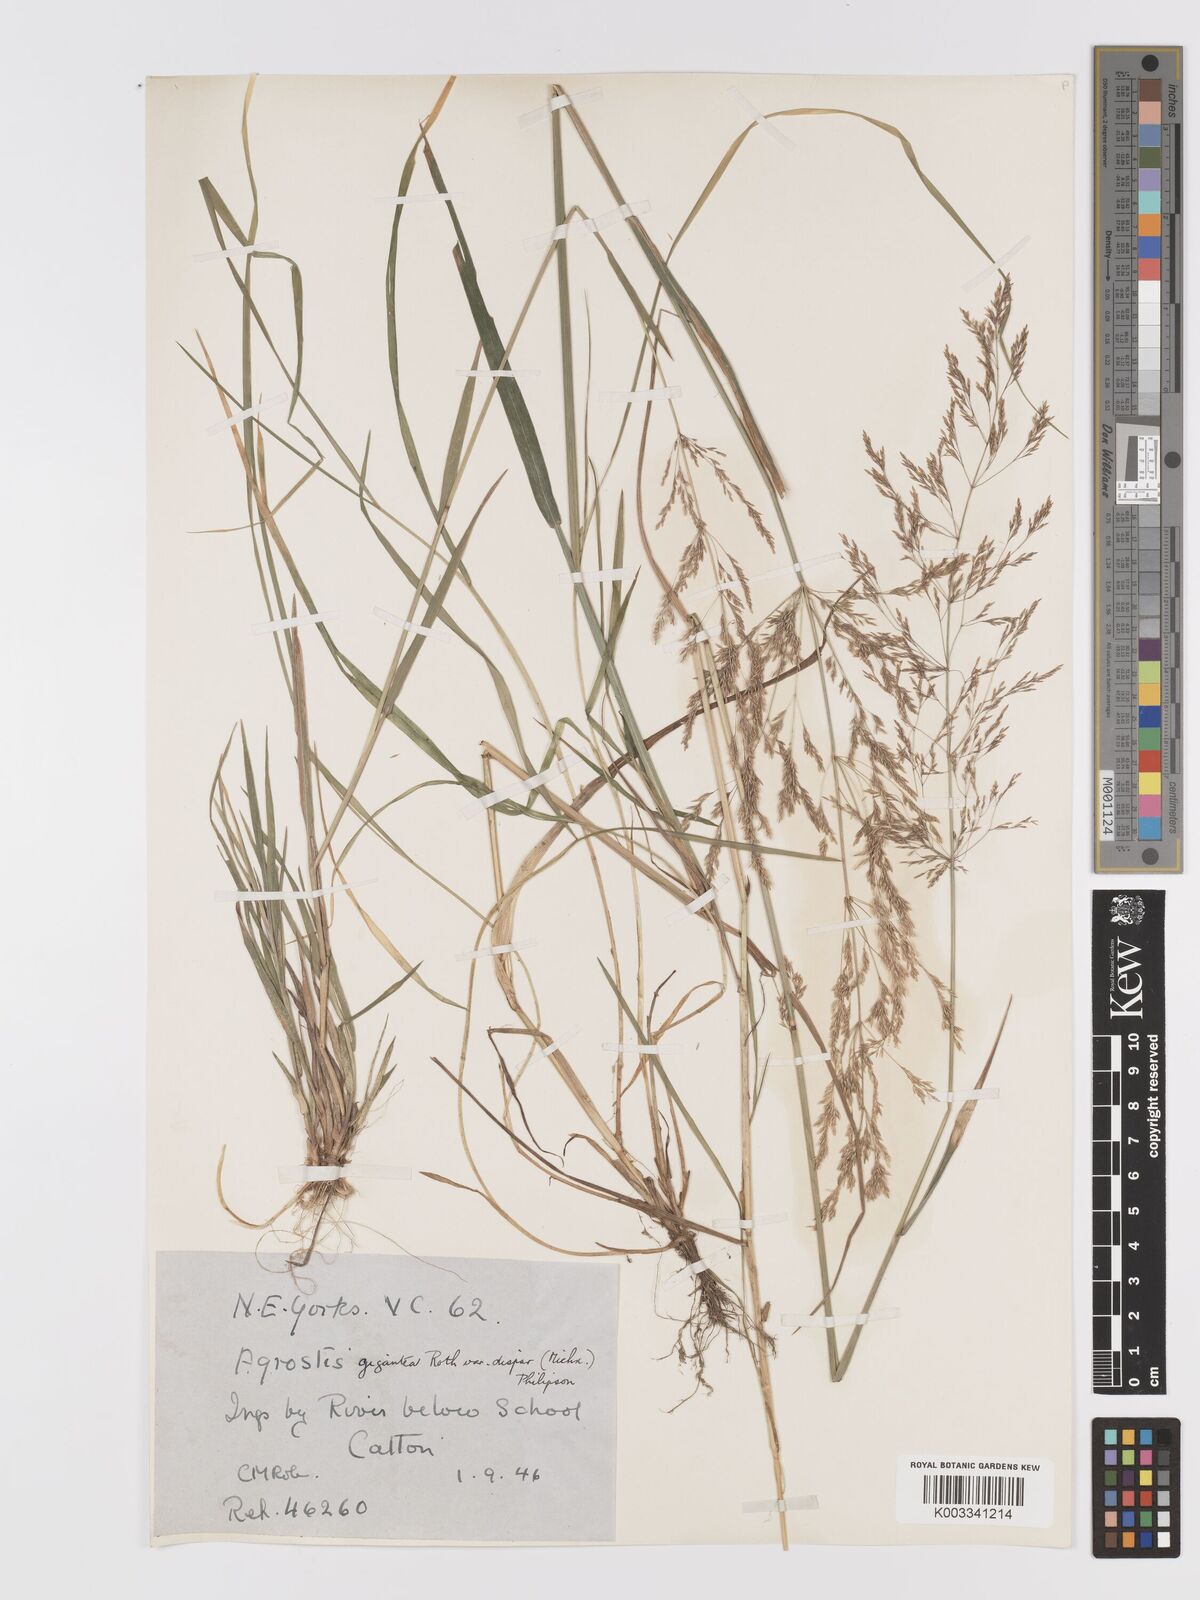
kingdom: Plantae
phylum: Tracheophyta
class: Liliopsida
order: Poales
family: Poaceae
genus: Agrostis
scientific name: Agrostis gigantea
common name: Black bent
